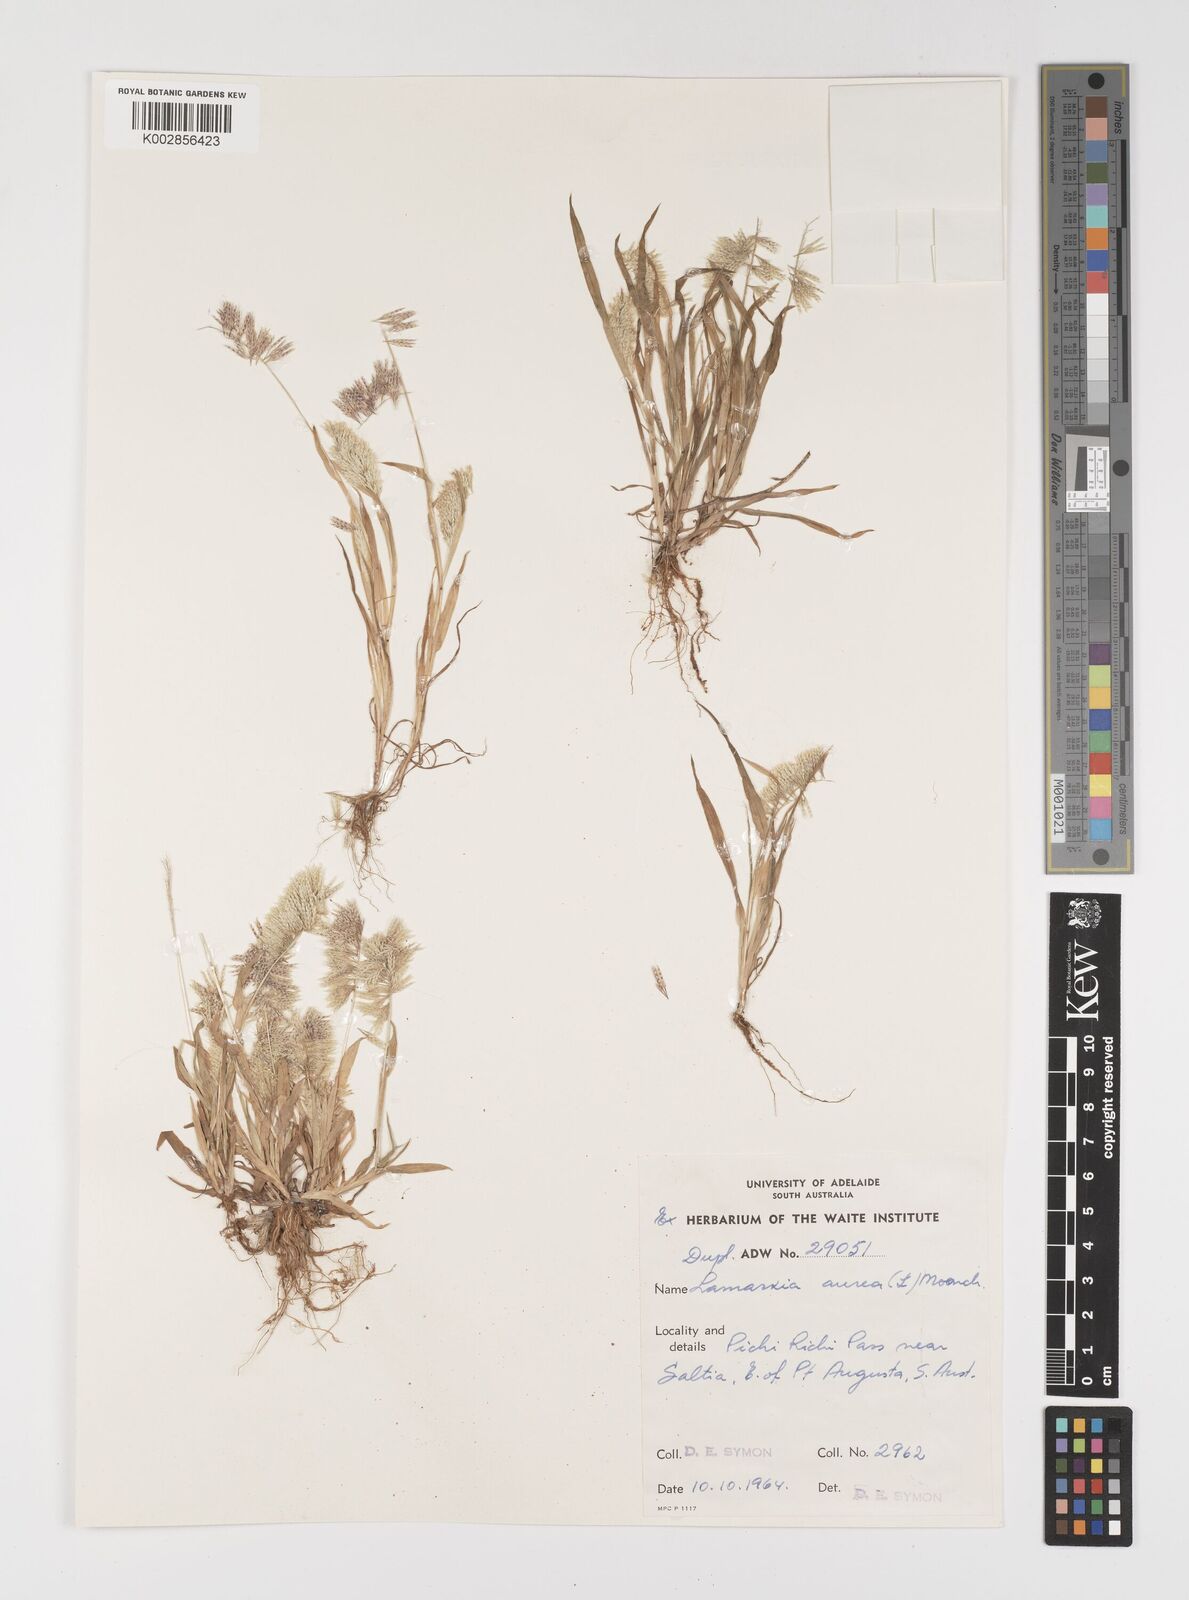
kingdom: Plantae
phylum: Tracheophyta
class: Liliopsida
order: Poales
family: Poaceae
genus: Lamarckia
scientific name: Lamarckia aurea
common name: Golden dog's-tail
